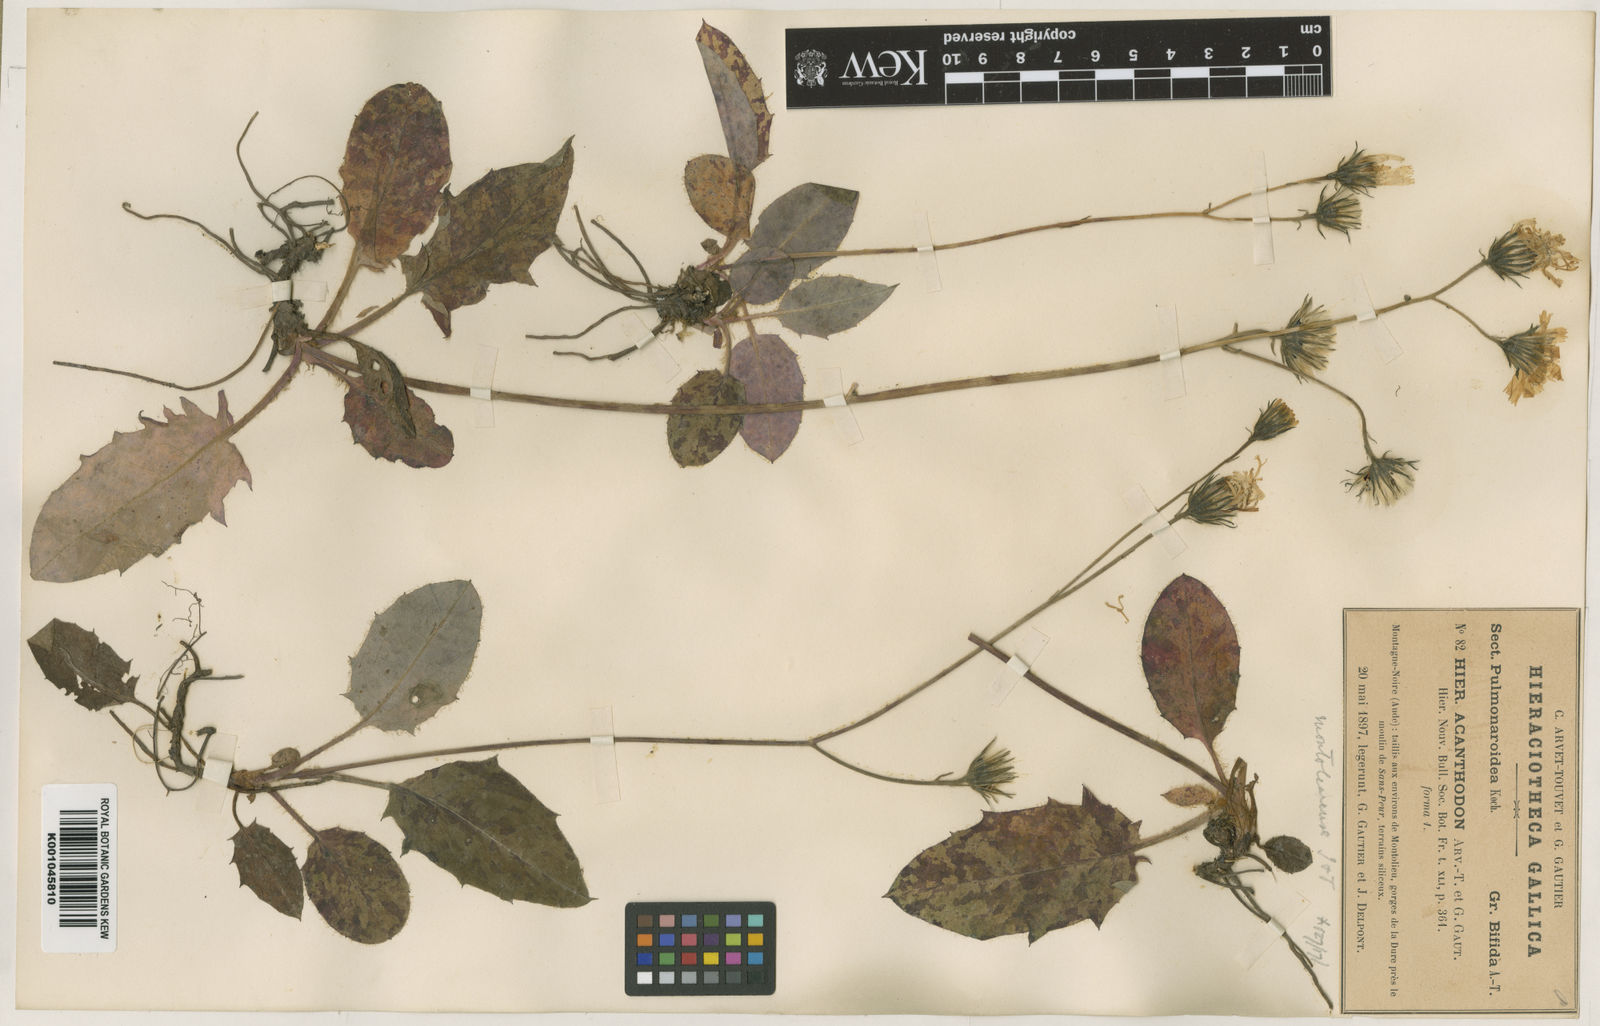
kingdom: Plantae
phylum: Tracheophyta
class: Magnoliopsida
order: Asterales
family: Asteraceae
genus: Hieracium
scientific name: Hieracium glaucinum
